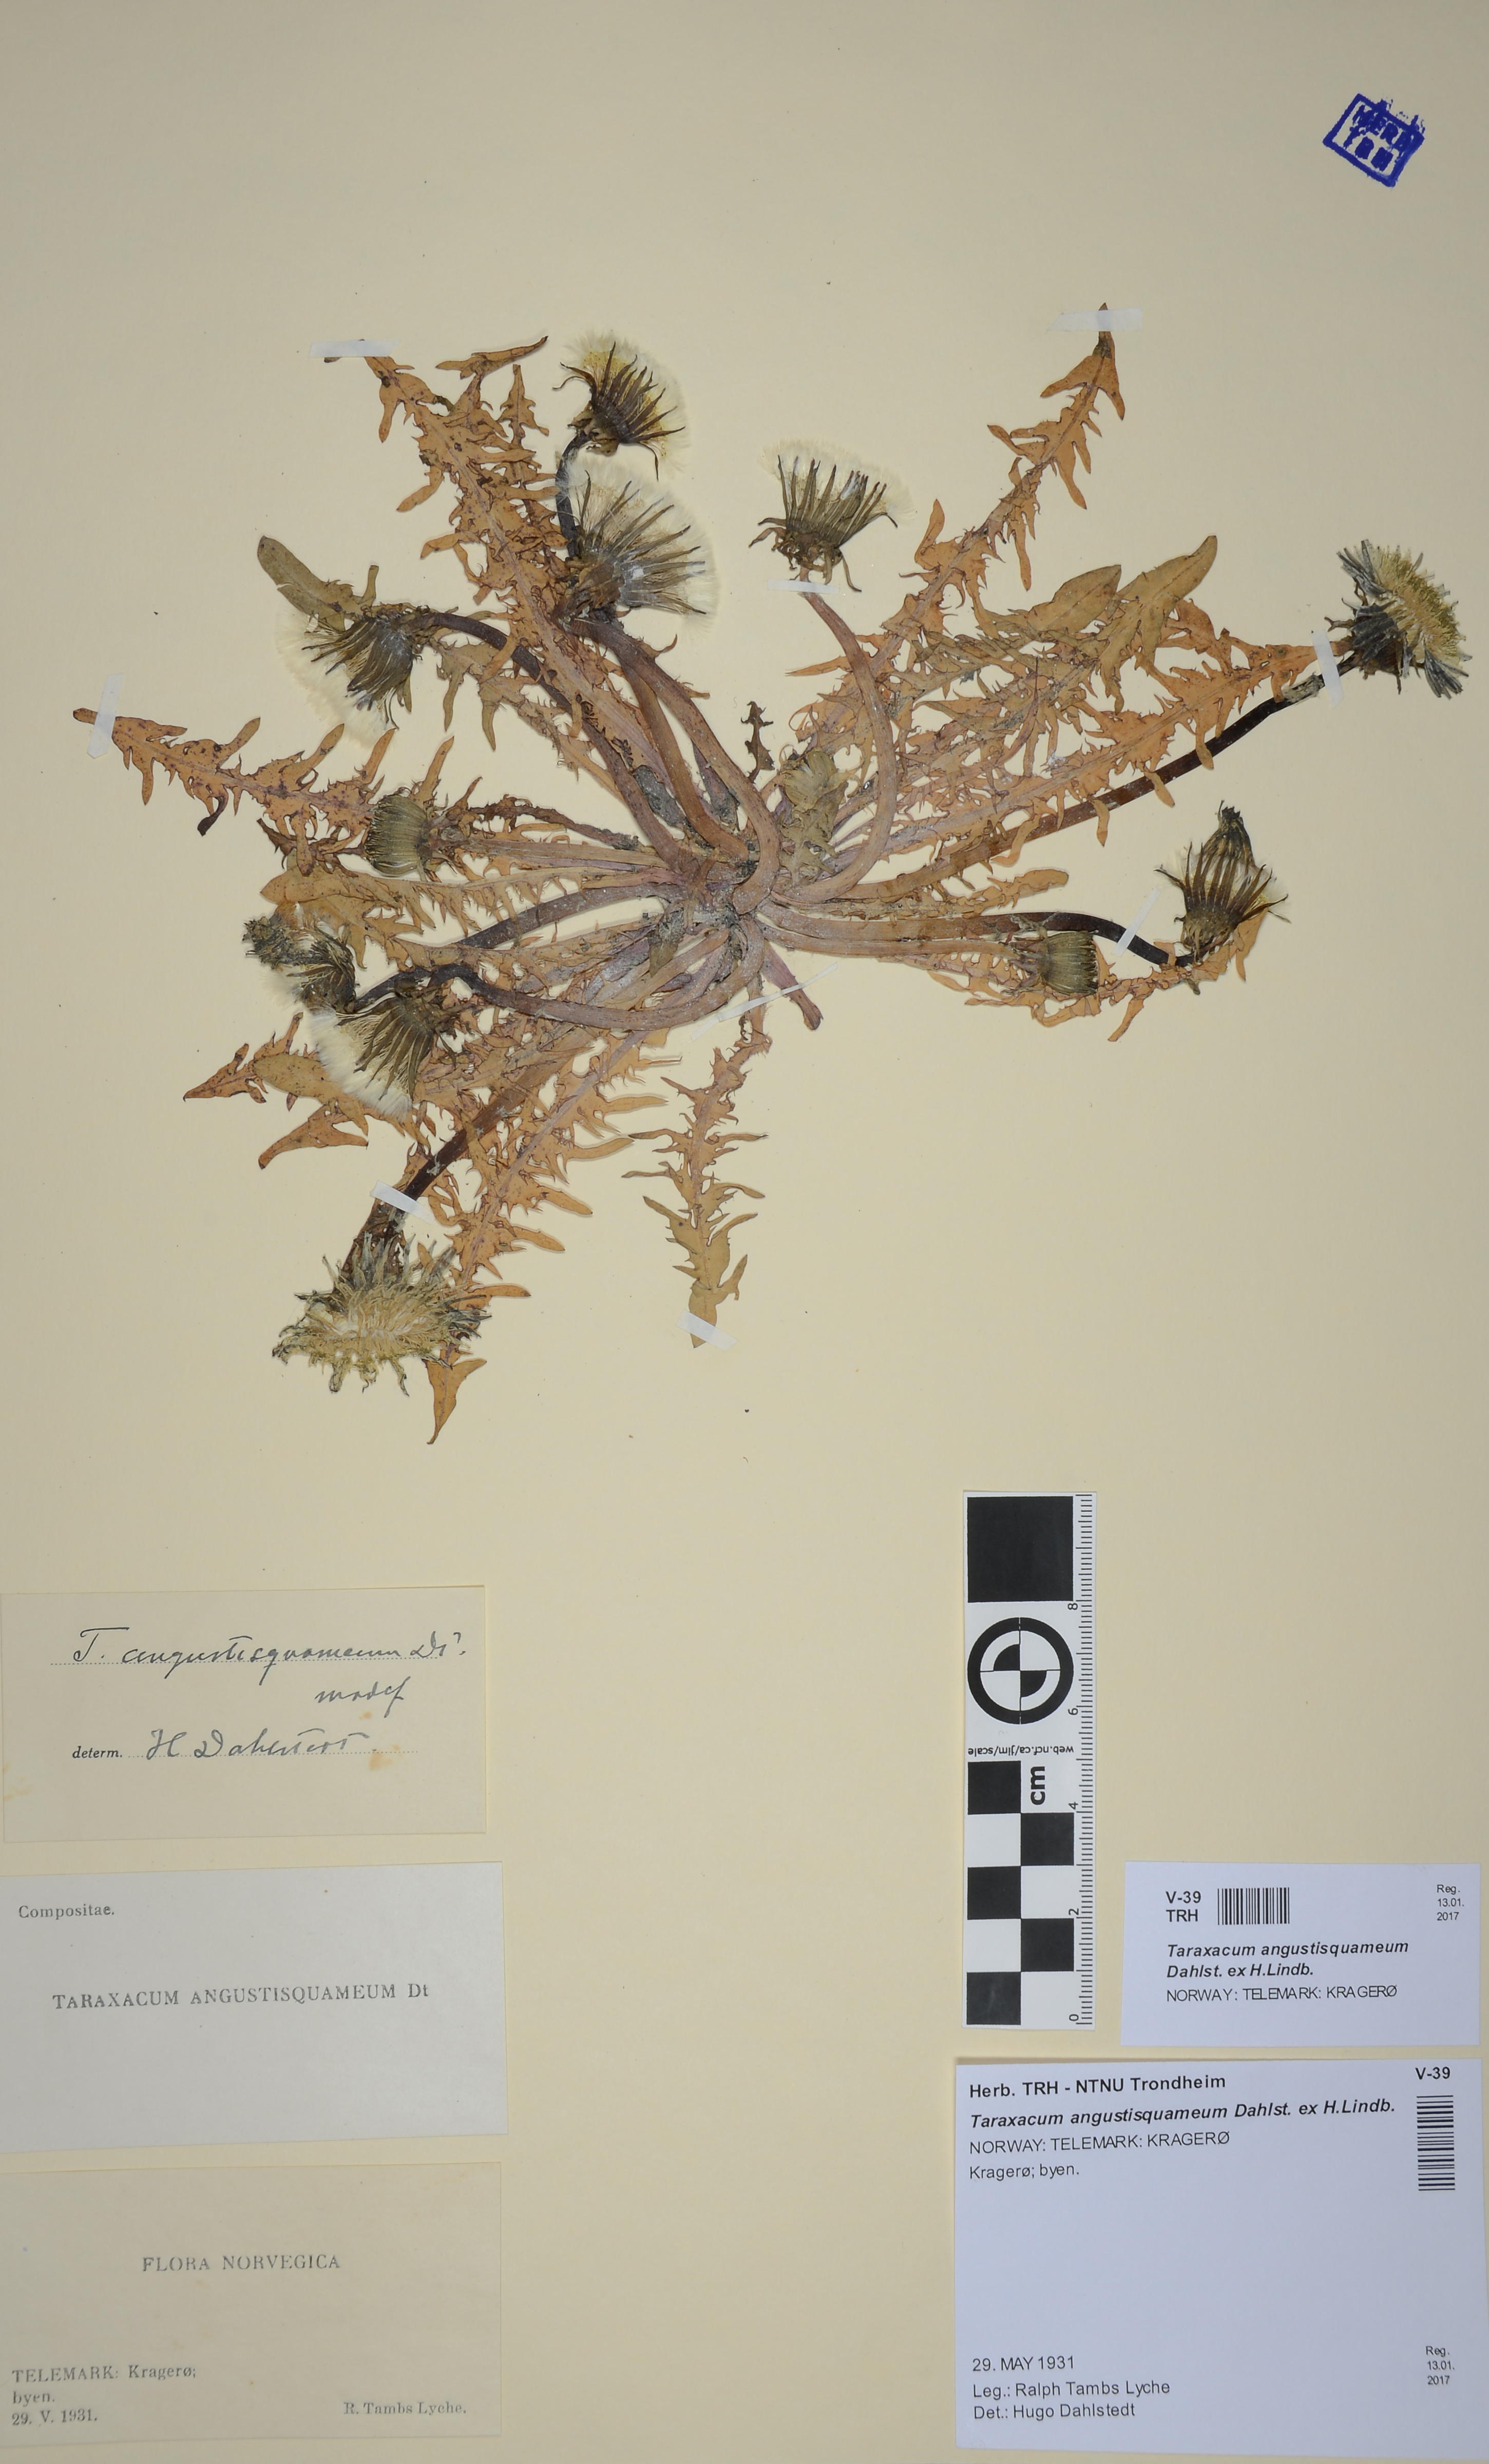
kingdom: Plantae
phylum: Tracheophyta
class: Magnoliopsida
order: Asterales
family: Asteraceae
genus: Taraxacum
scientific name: Taraxacum angustisquameum
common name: Multilobed dandelion
